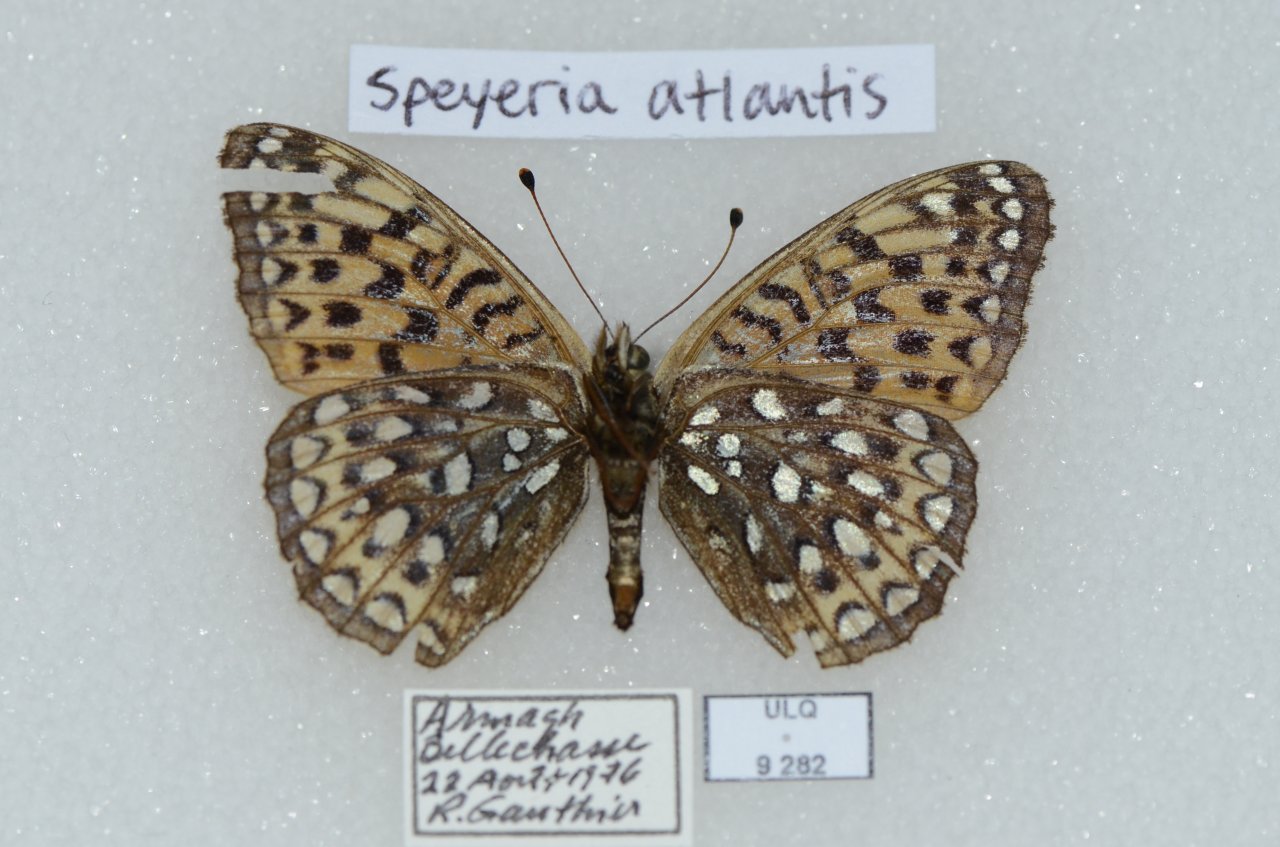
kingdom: Animalia
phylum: Arthropoda
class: Insecta
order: Lepidoptera
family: Nymphalidae
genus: Speyeria
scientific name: Speyeria atlantis
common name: Atlantis Fritillary
